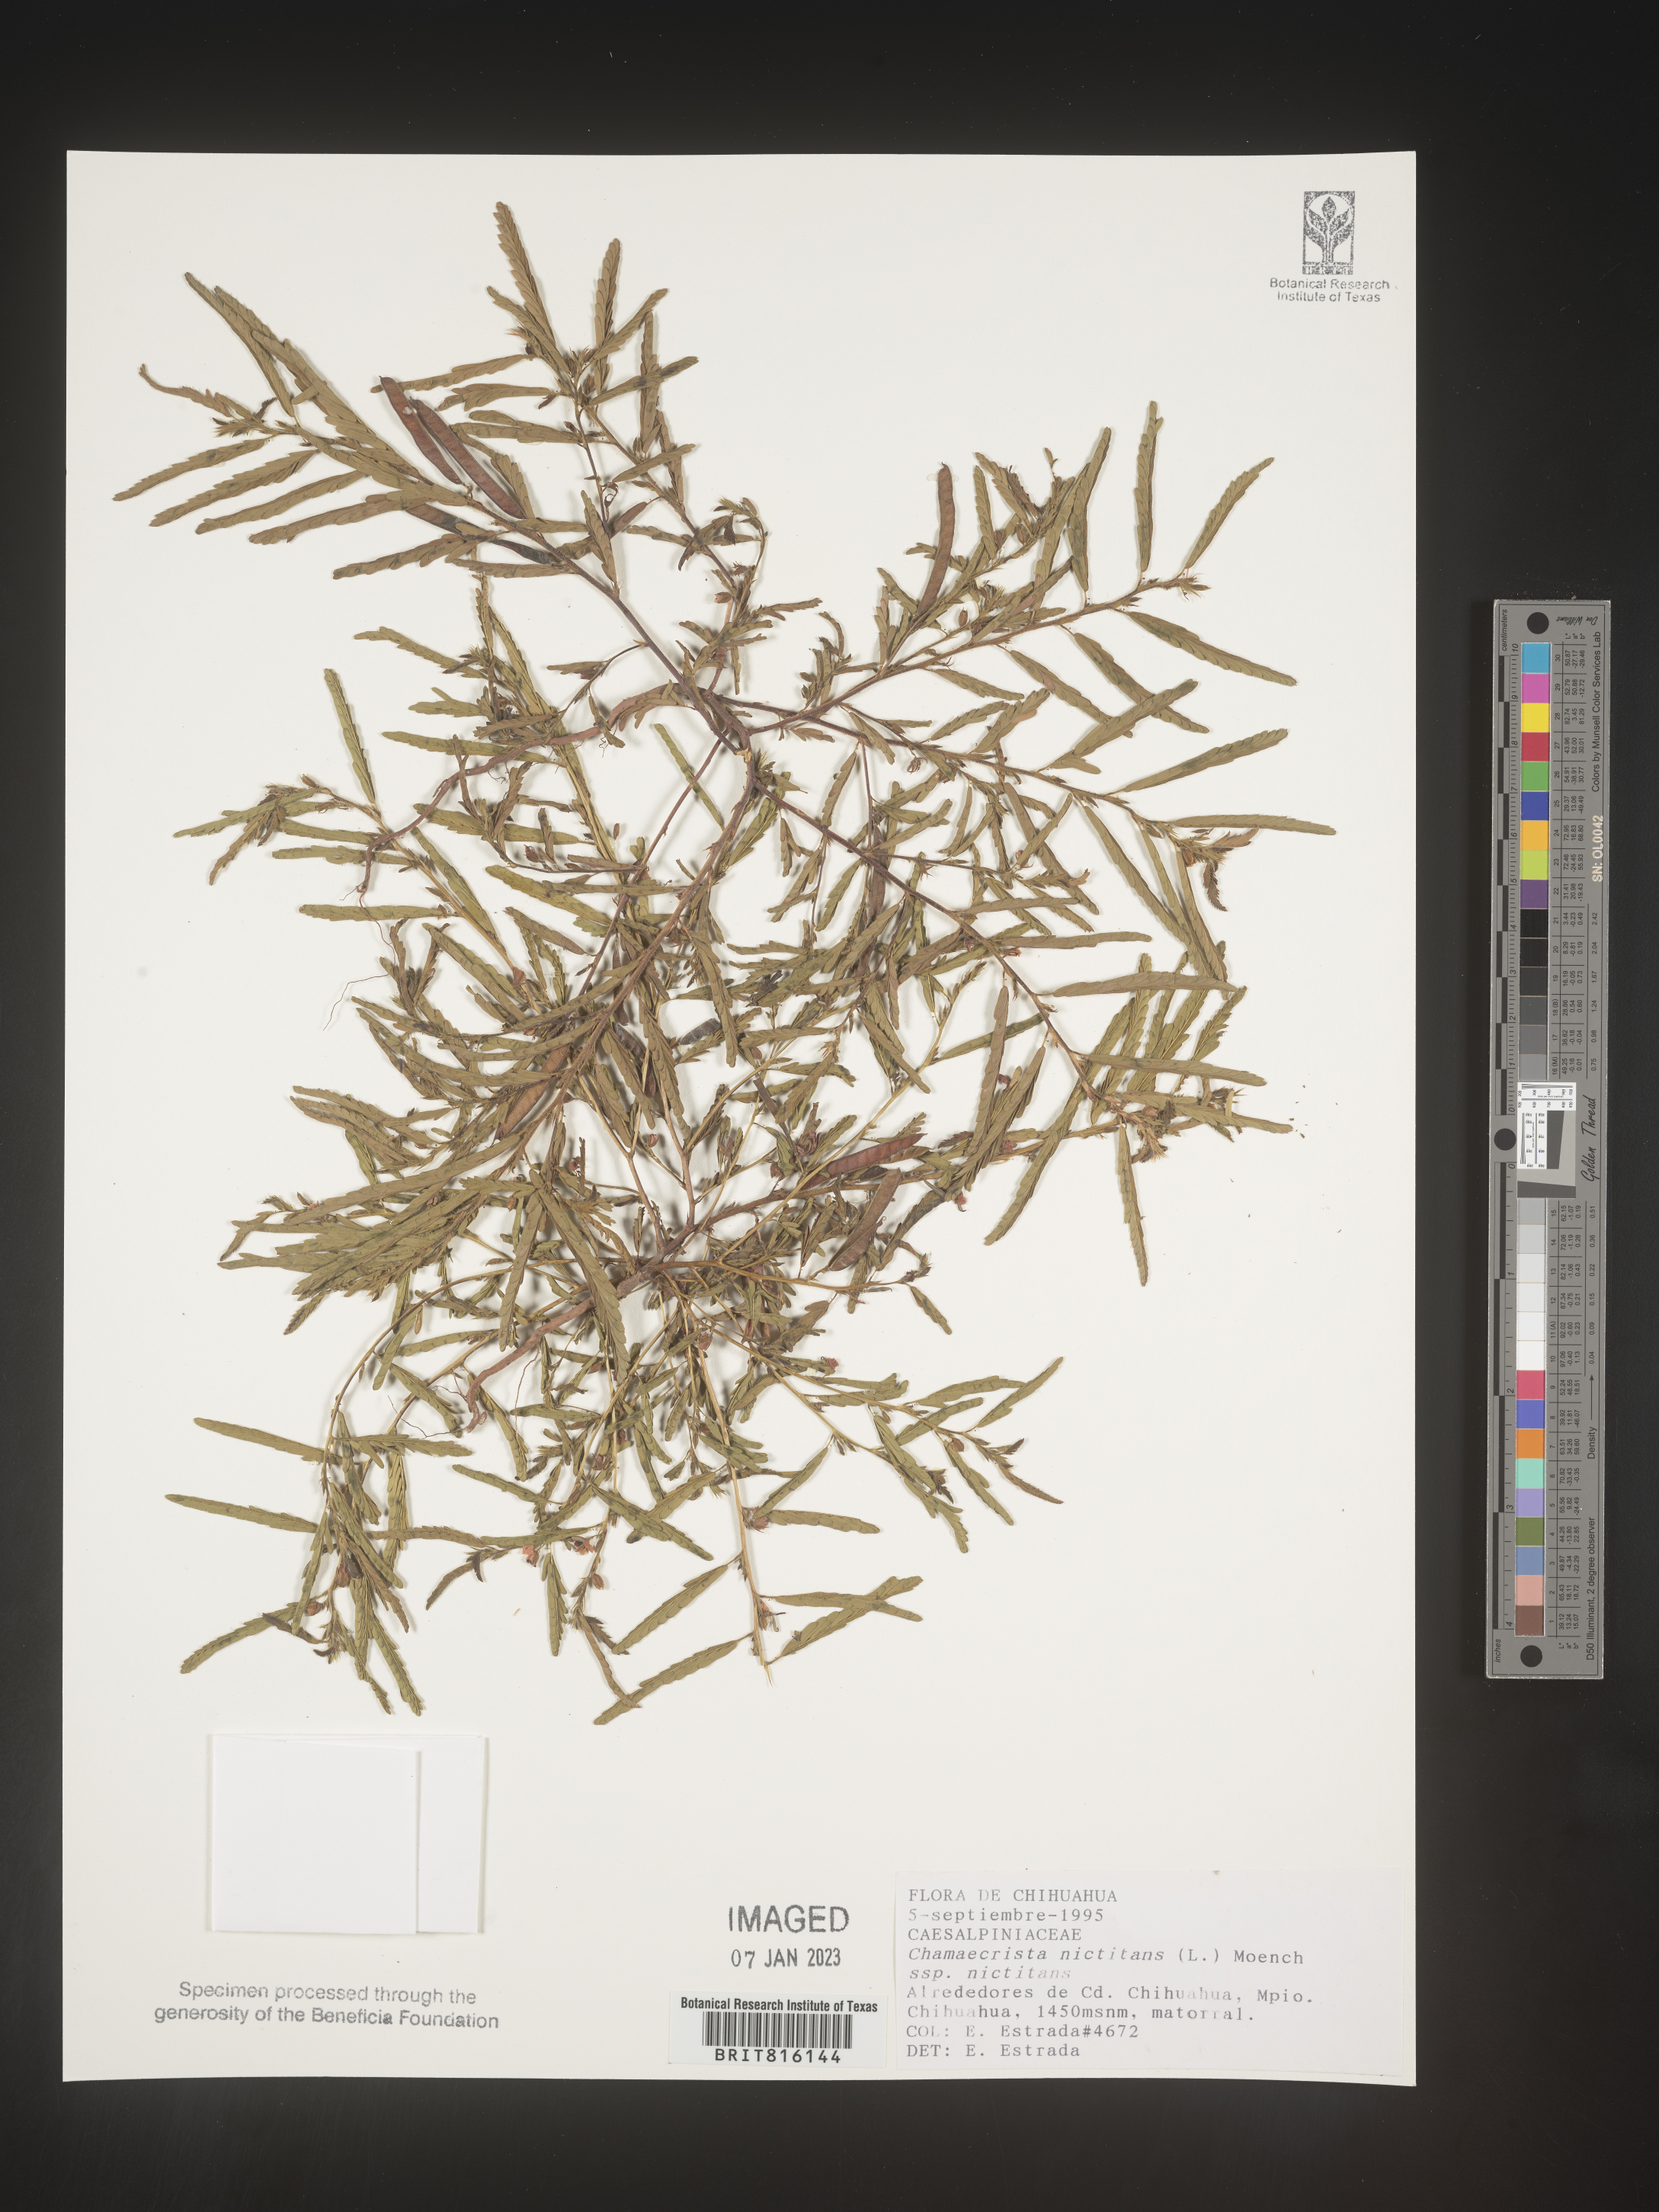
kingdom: Plantae
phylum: Tracheophyta
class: Magnoliopsida
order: Fabales
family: Fabaceae
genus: Chamaecrista
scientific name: Chamaecrista
